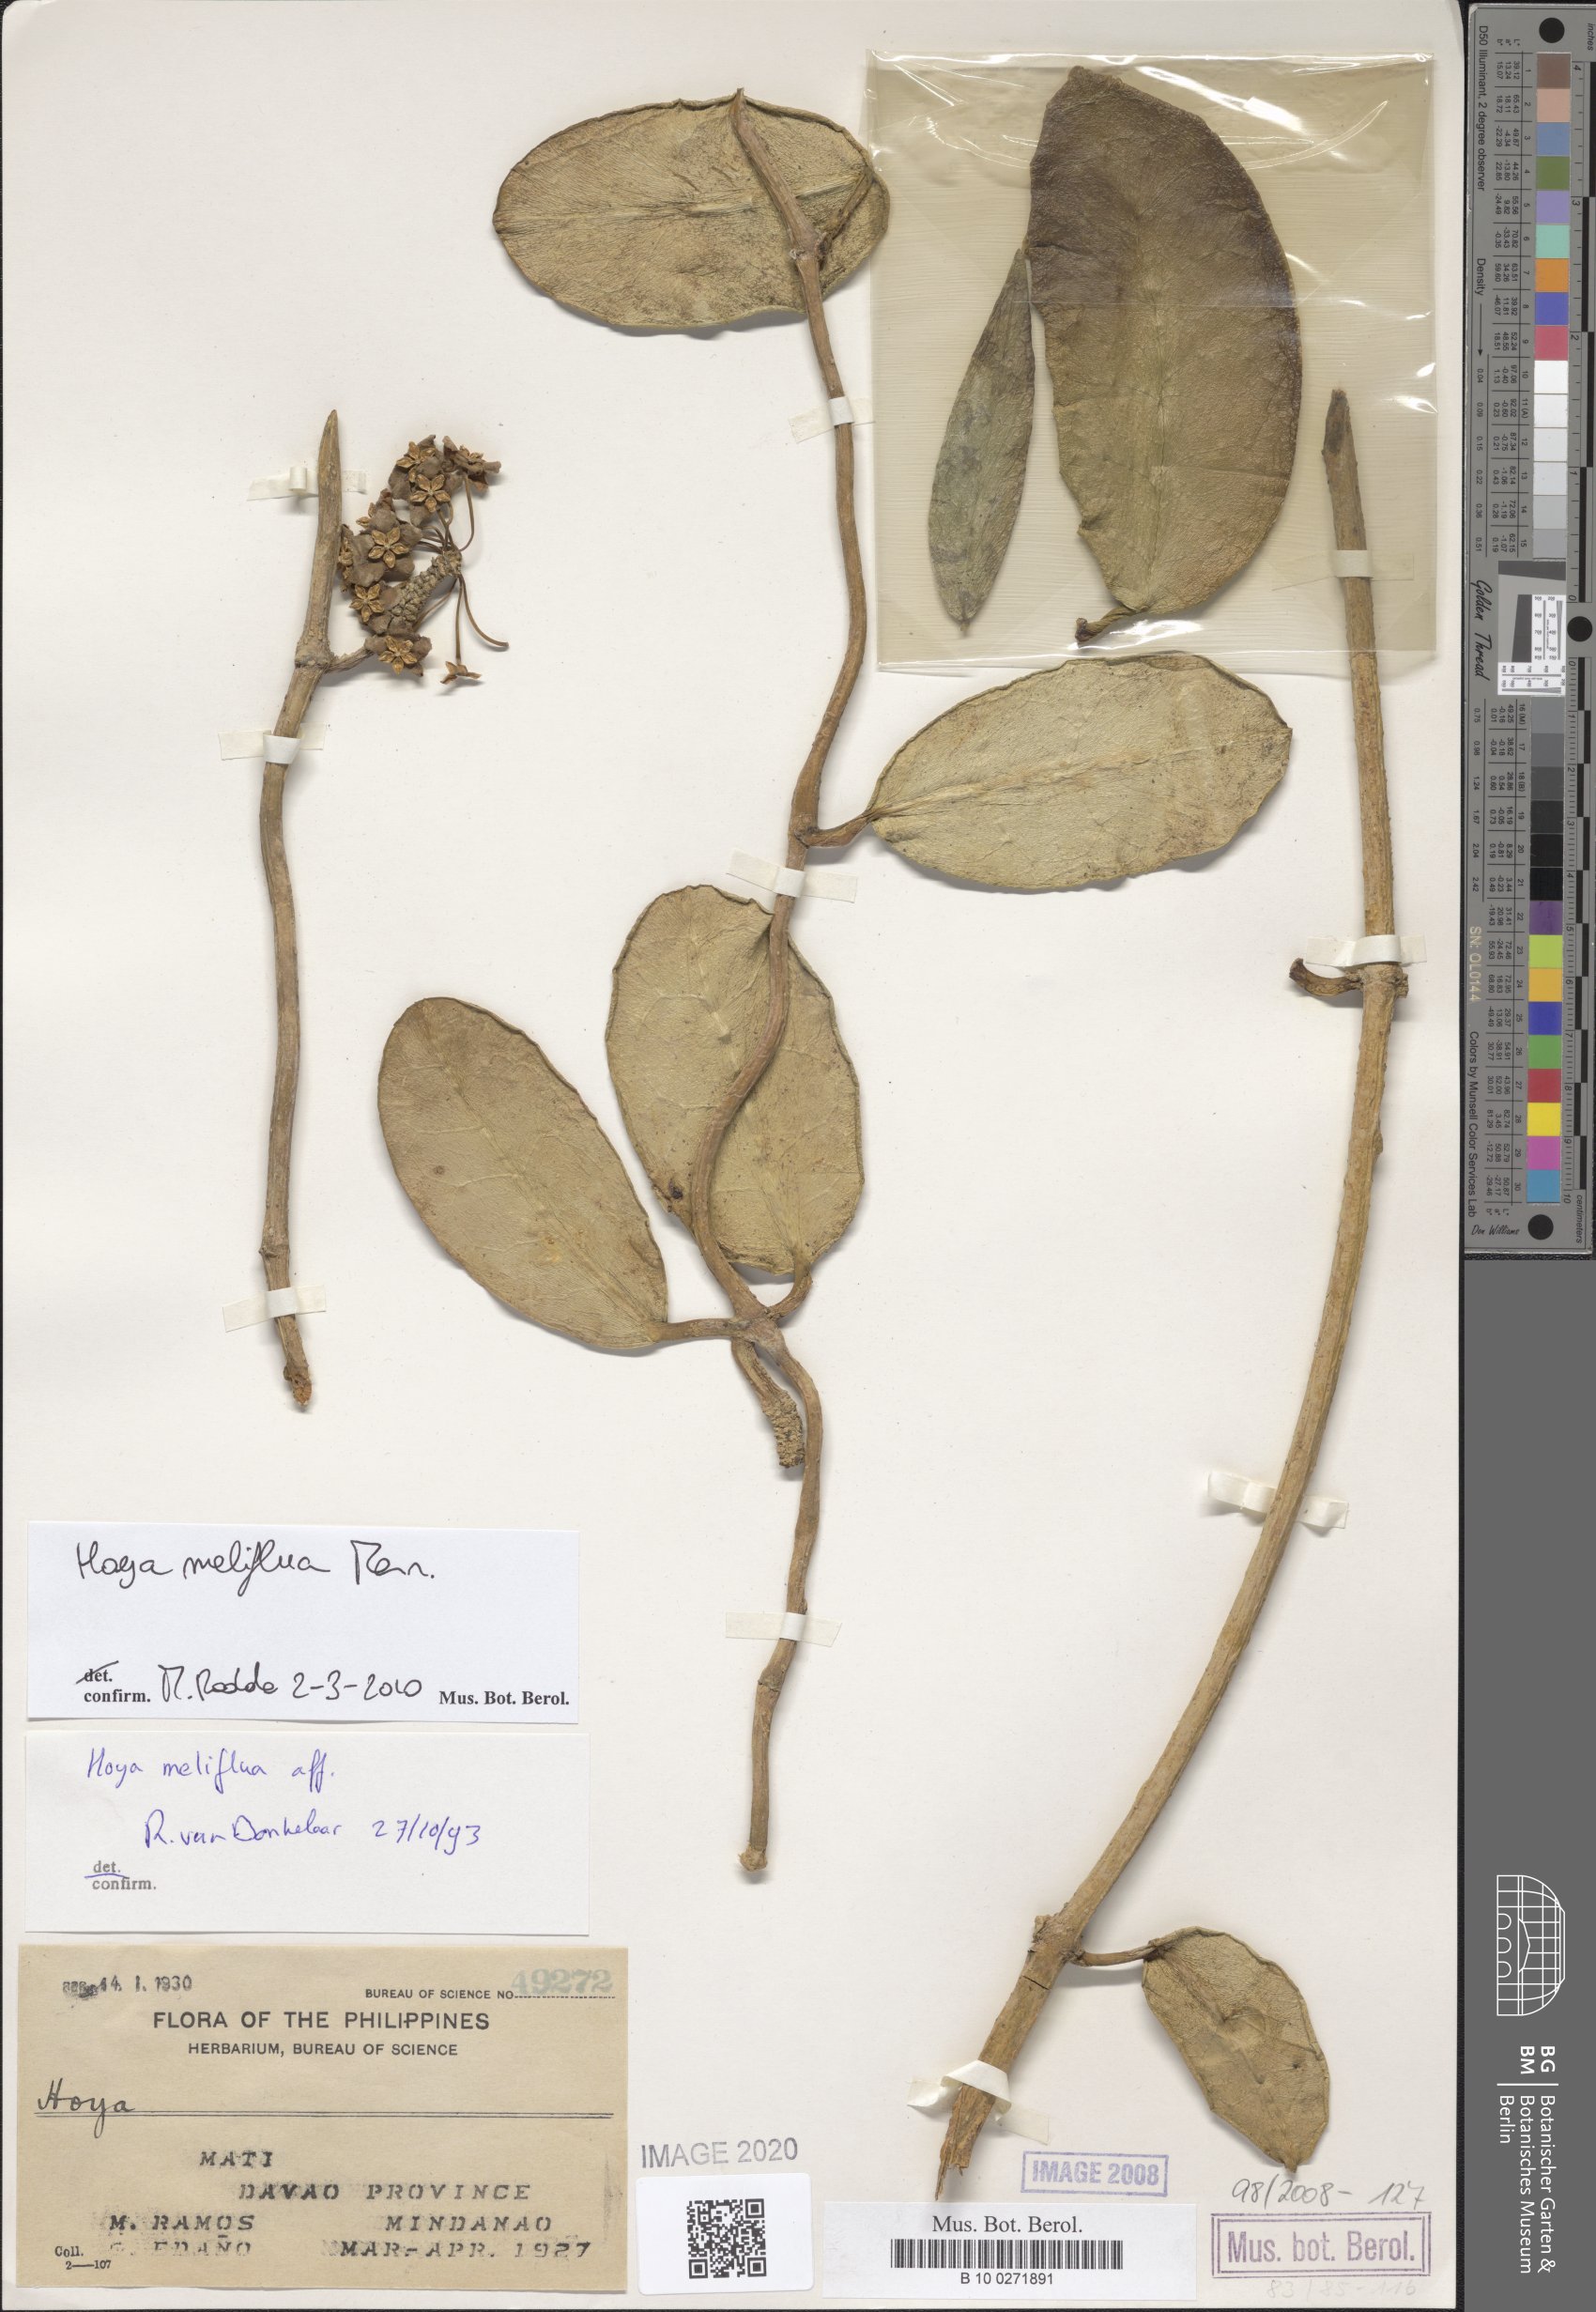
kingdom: Plantae
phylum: Tracheophyta
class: Magnoliopsida
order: Gentianales
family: Apocynaceae
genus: Hoya
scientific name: Hoya meliflua
